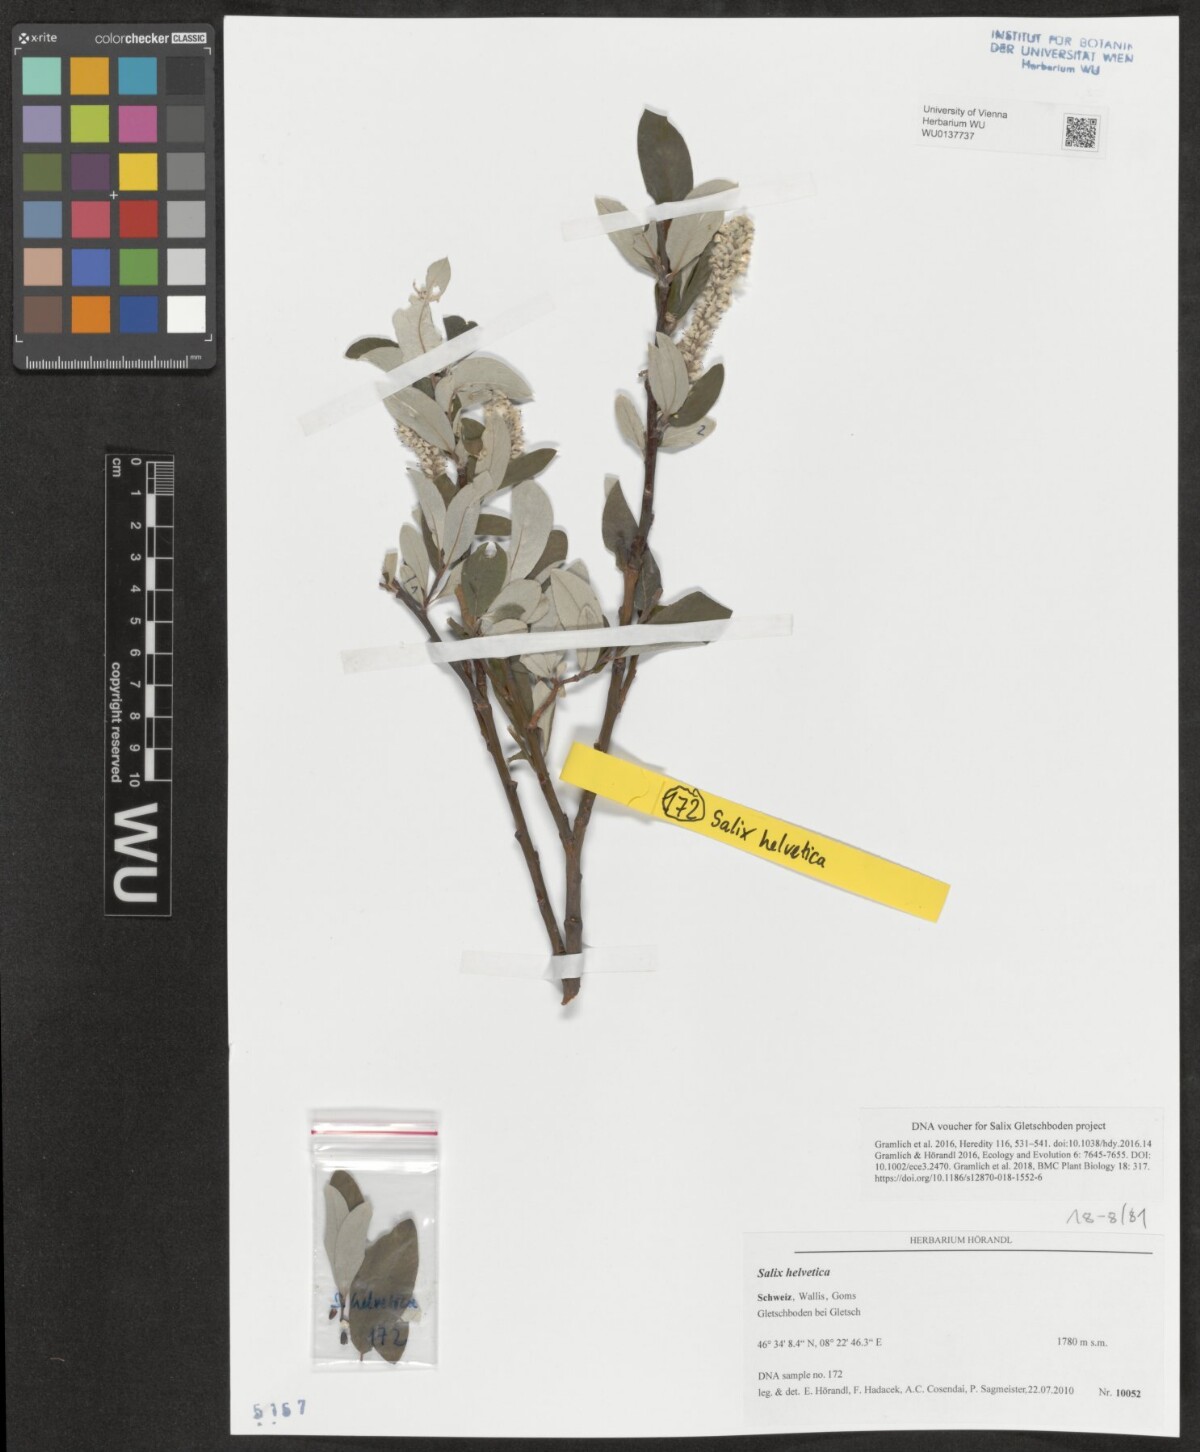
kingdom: Plantae
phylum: Tracheophyta
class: Magnoliopsida
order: Malpighiales
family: Salicaceae
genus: Salix
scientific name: Salix helvetica
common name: Swiss willow
